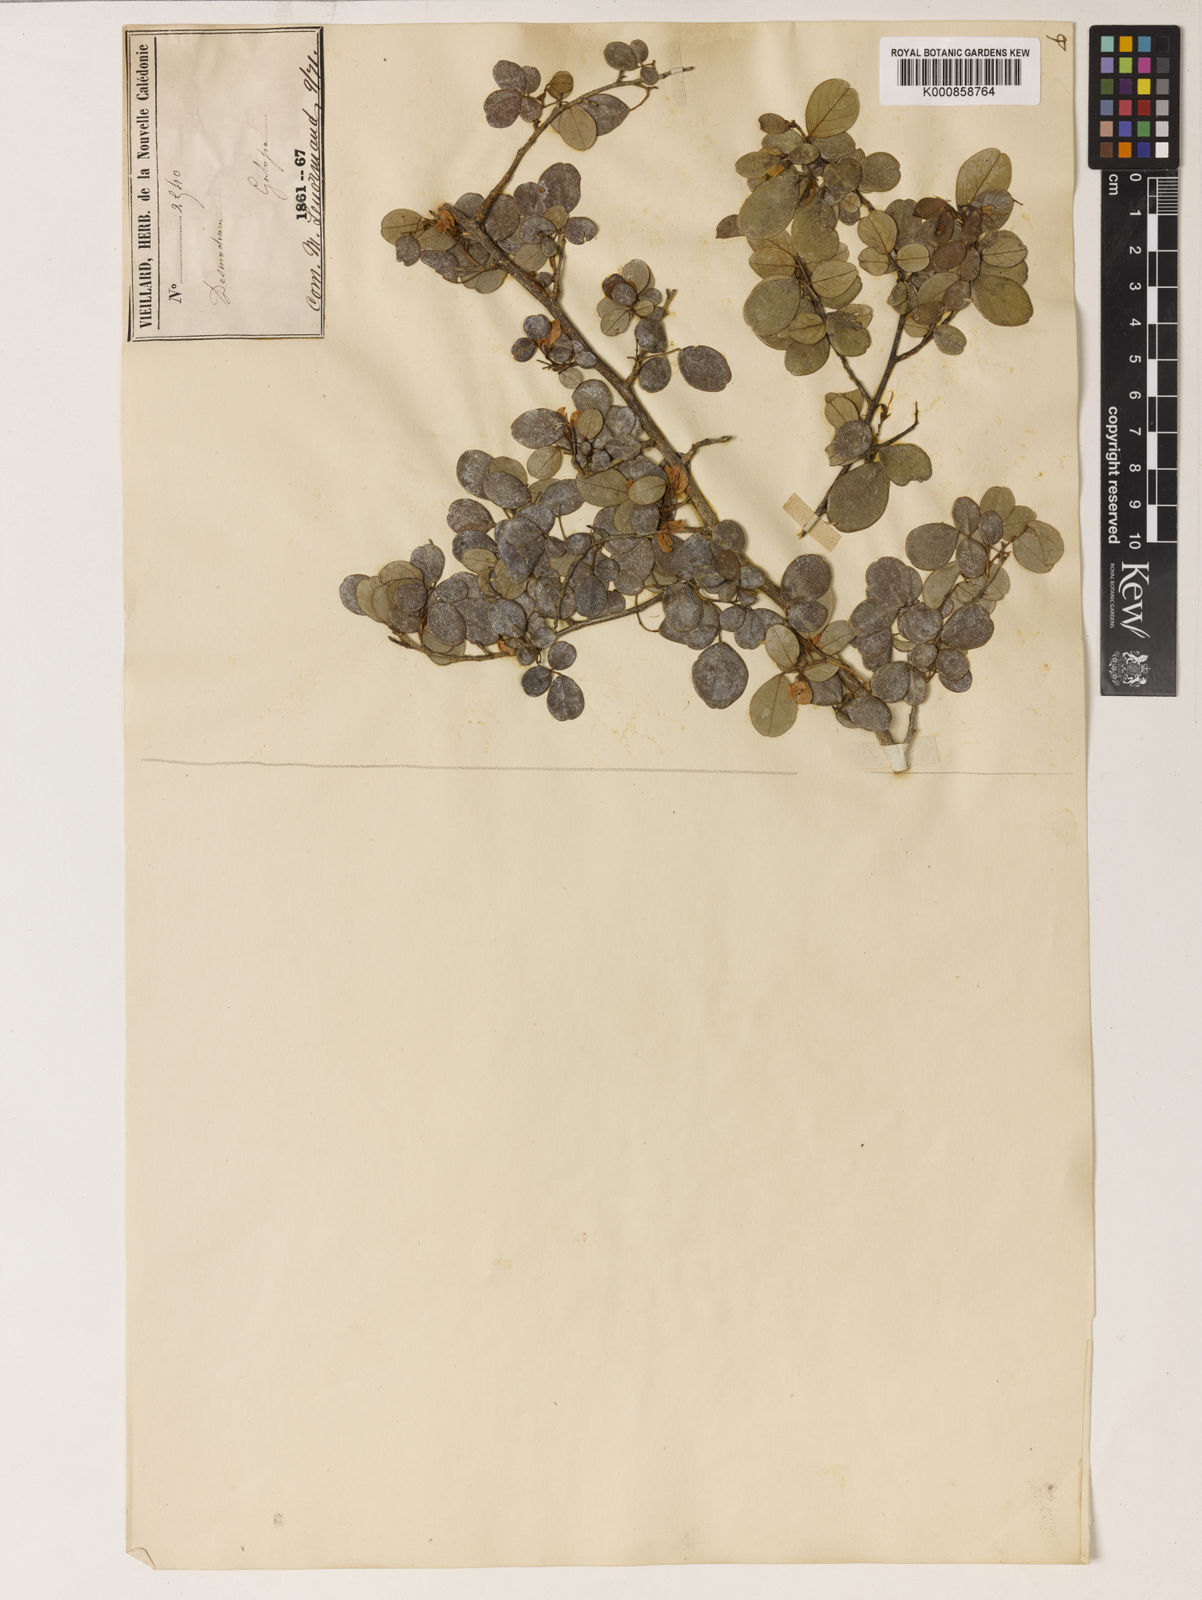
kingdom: Plantae
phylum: Tracheophyta
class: Magnoliopsida
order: Fabales
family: Fabaceae
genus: Nephrodesmus
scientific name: Nephrodesmus parvifolius
